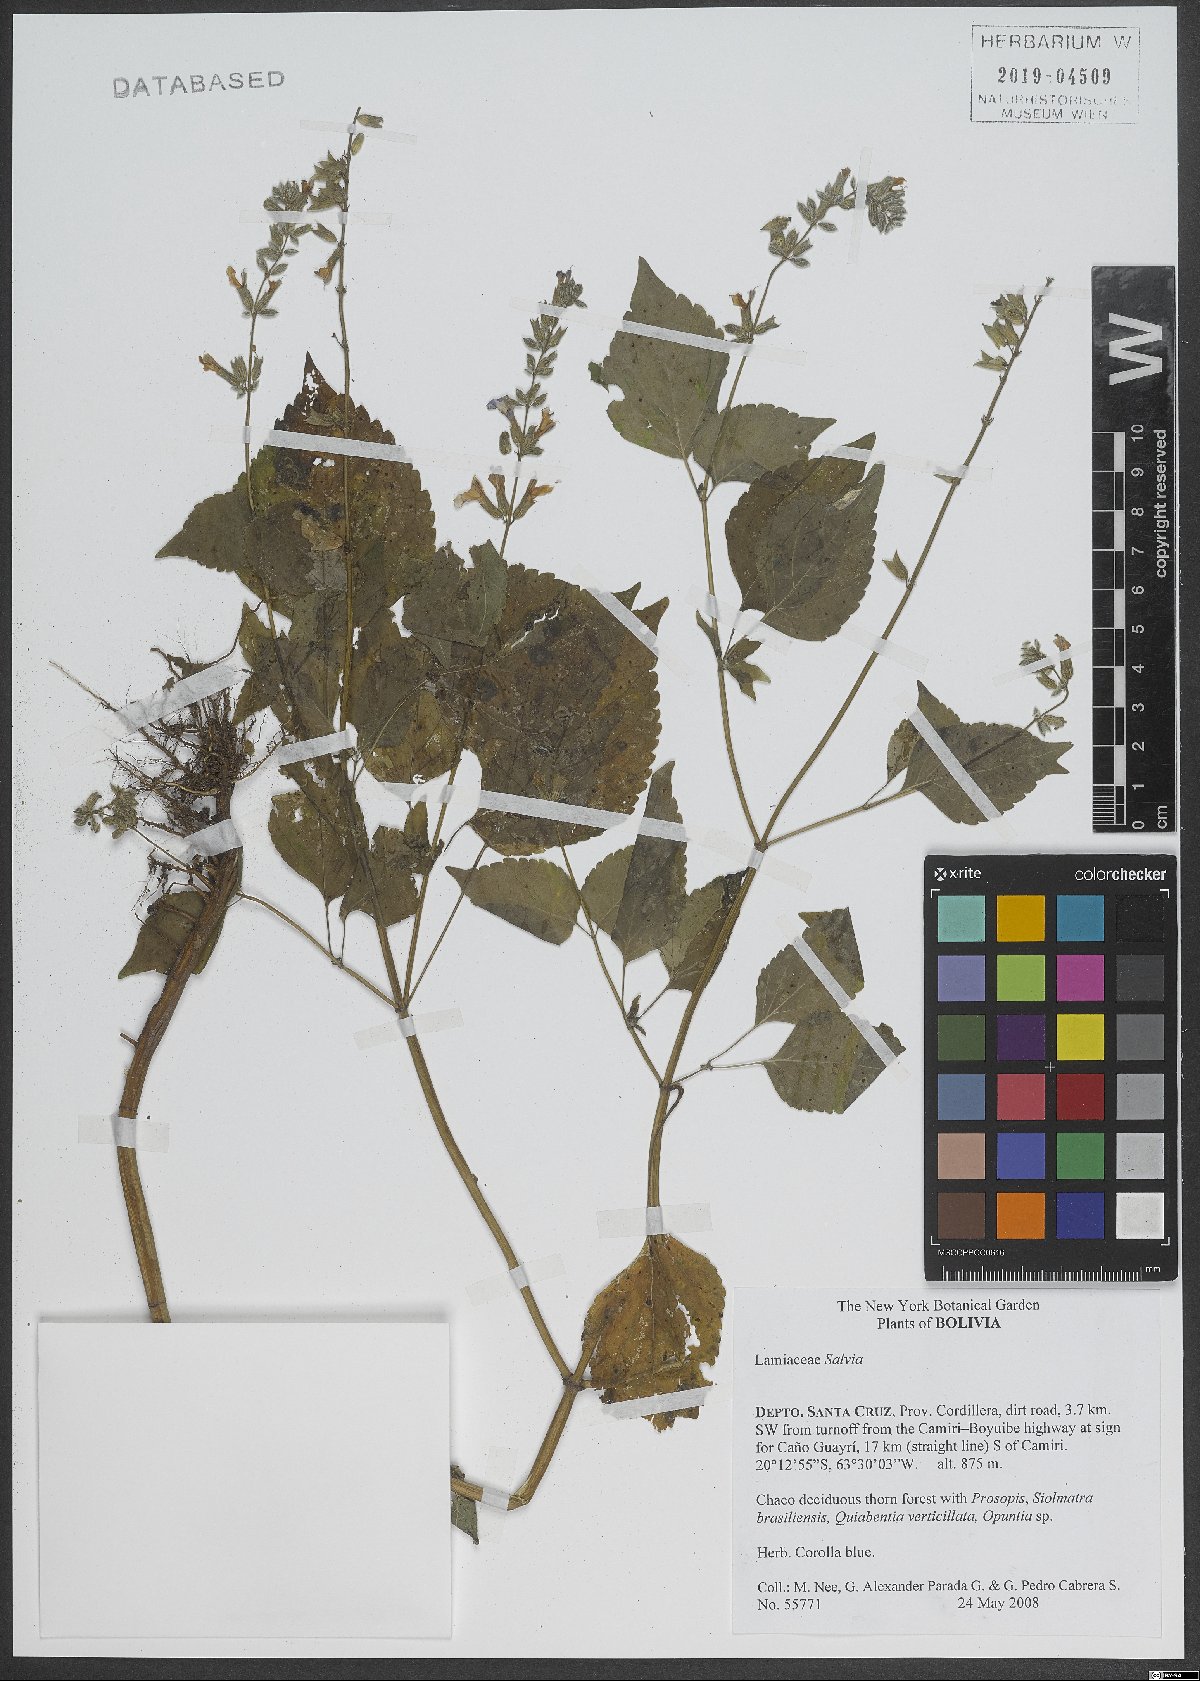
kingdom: Plantae
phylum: Tracheophyta
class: Magnoliopsida
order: Lamiales
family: Lamiaceae
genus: Salvia
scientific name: Salvia
